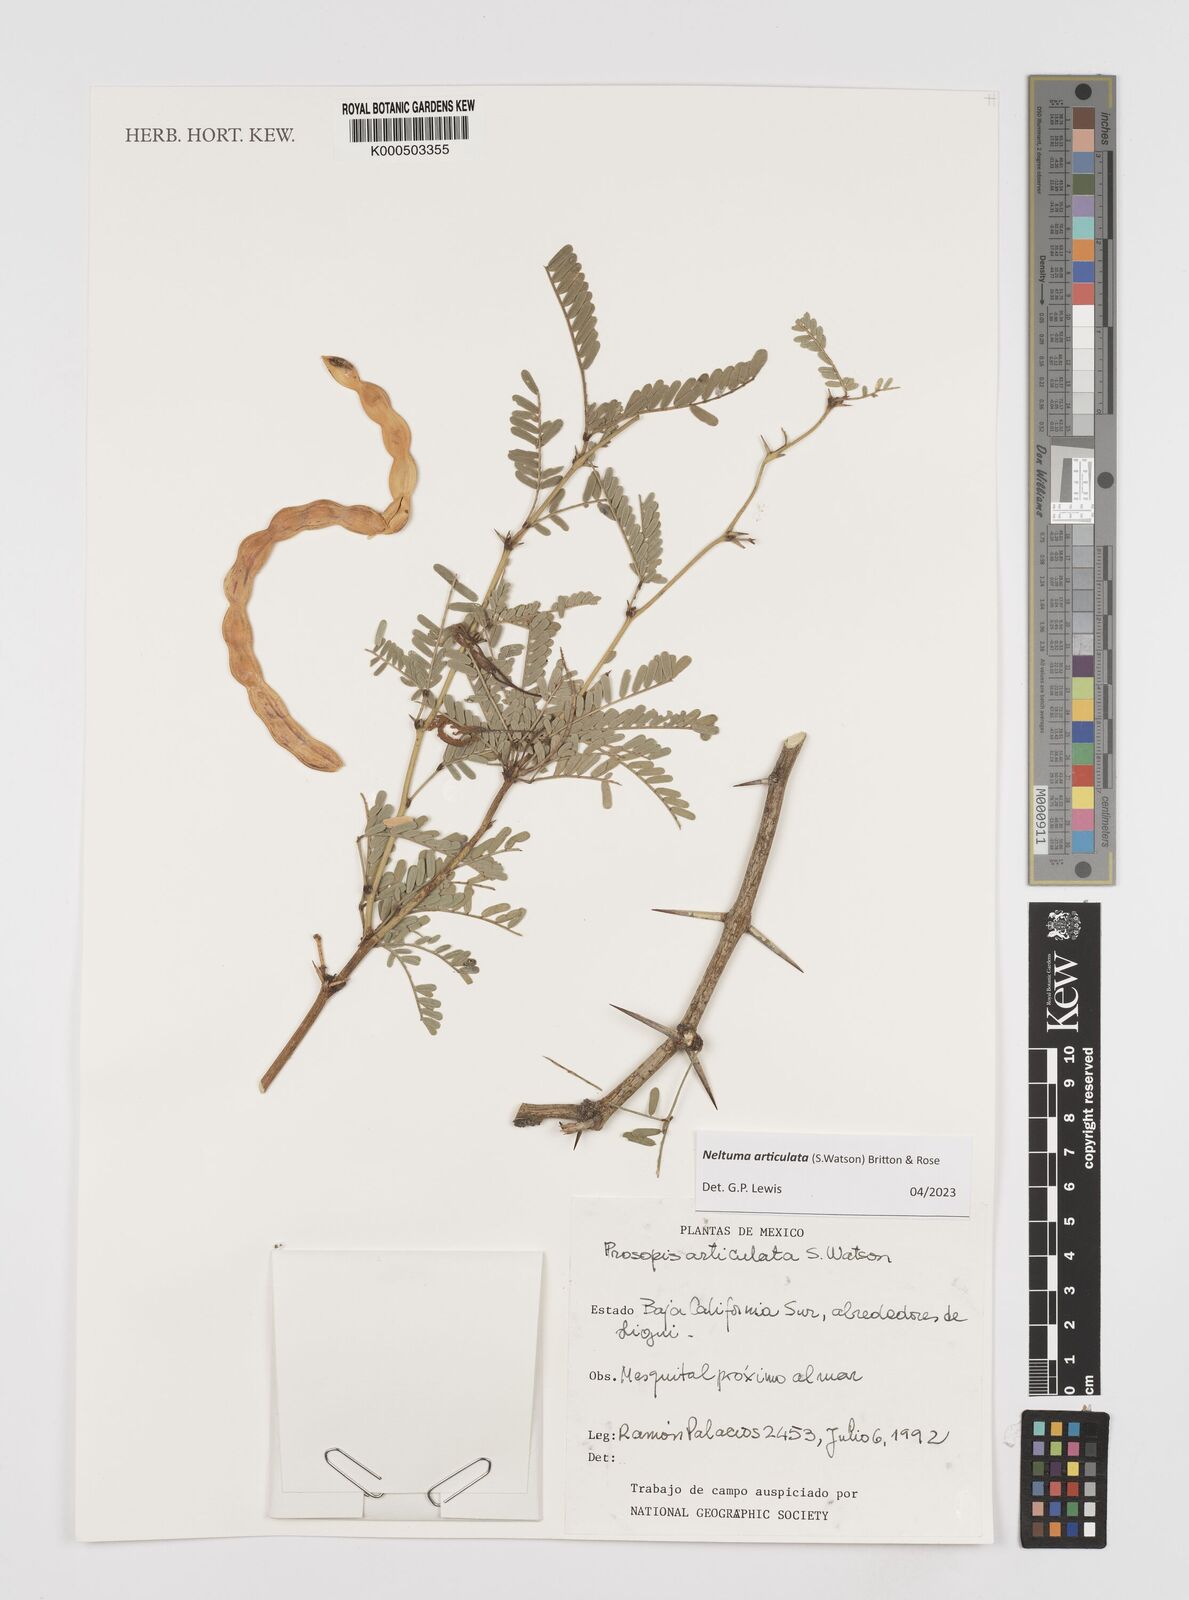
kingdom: Plantae
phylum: Tracheophyta
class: Magnoliopsida
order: Fabales
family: Fabaceae
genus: Prosopis
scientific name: Prosopis articulata
